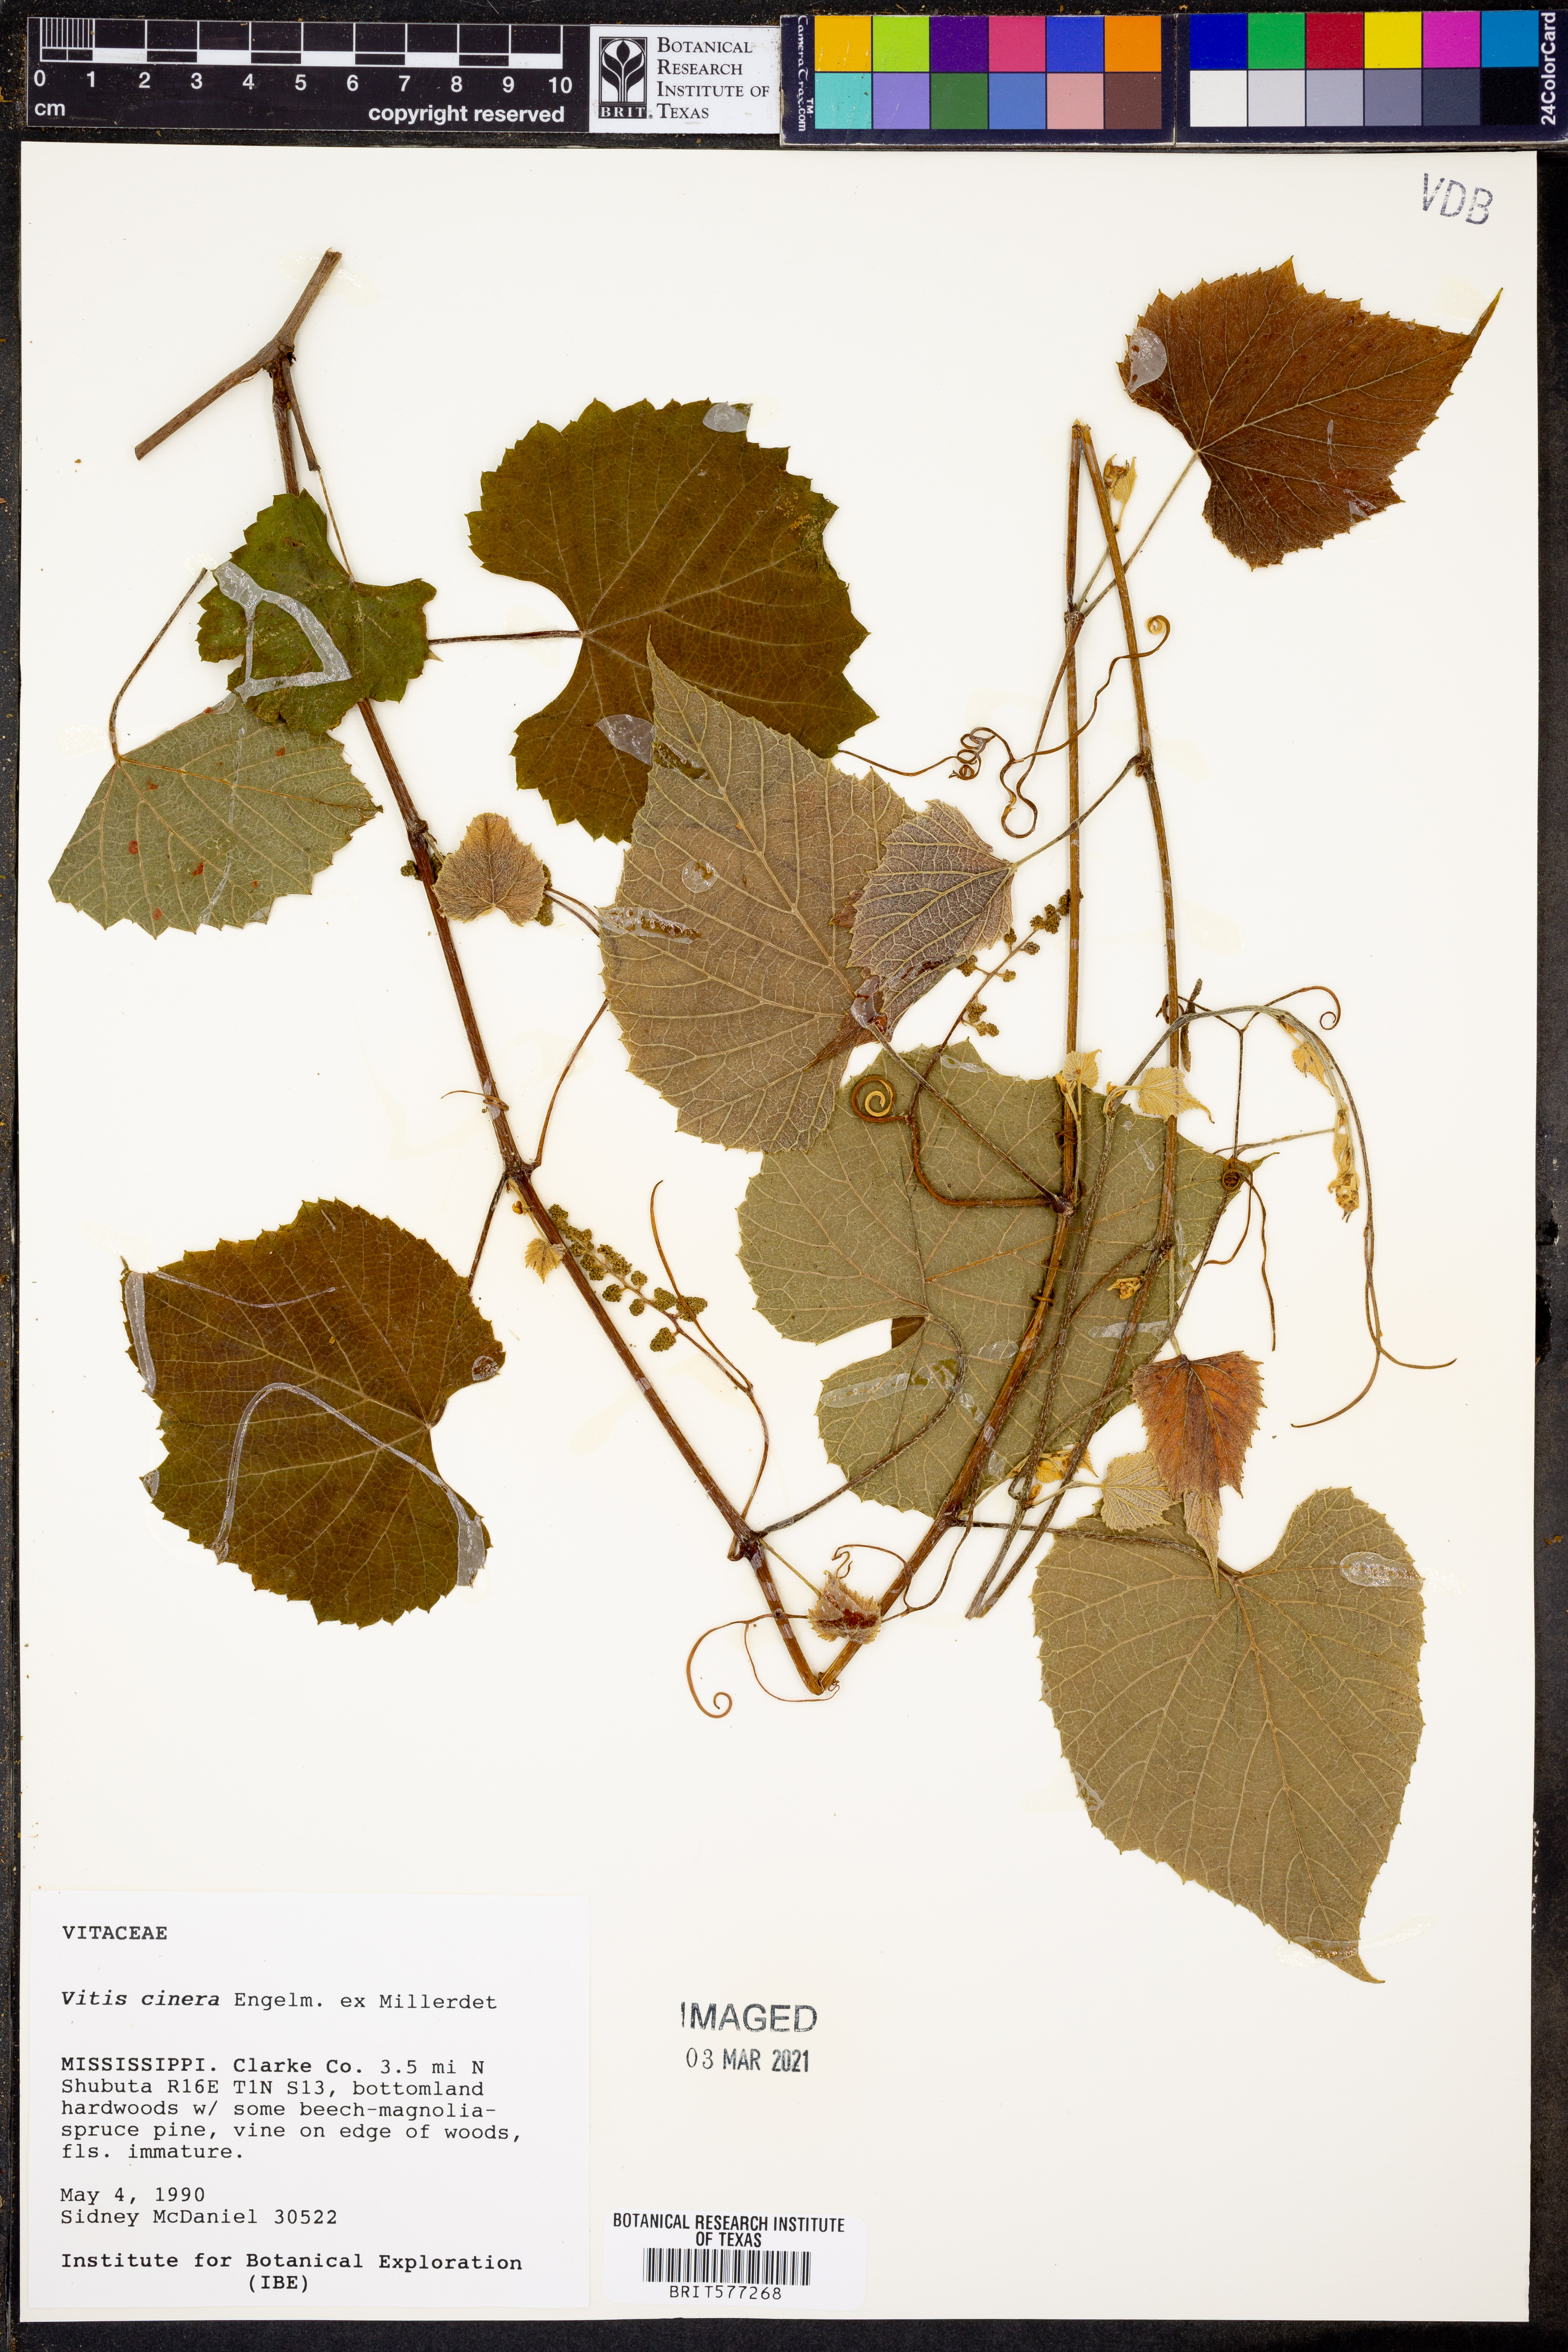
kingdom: Plantae
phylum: Tracheophyta
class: Magnoliopsida
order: Vitales
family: Vitaceae
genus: Vitis
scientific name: Vitis cinerea
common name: Ashy grape
